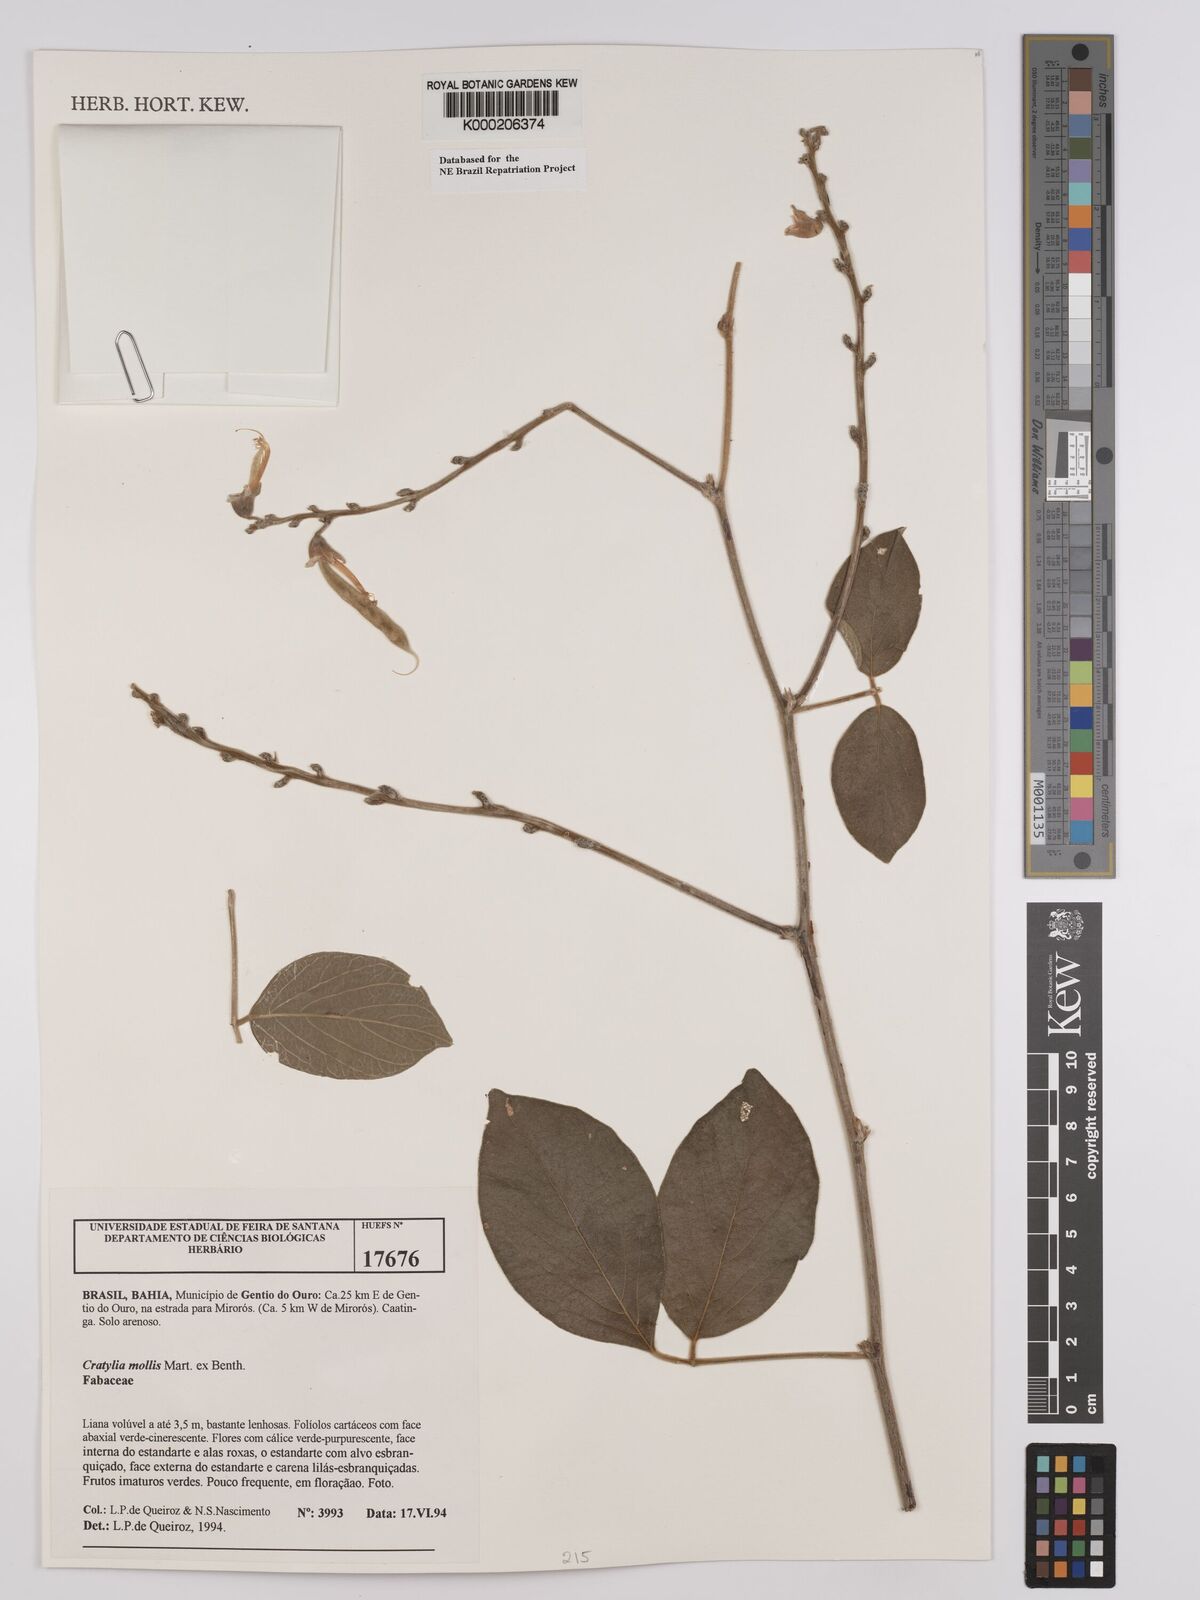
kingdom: Plantae
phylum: Tracheophyta
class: Magnoliopsida
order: Fabales
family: Fabaceae
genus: Cratylia
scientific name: Cratylia mollis
